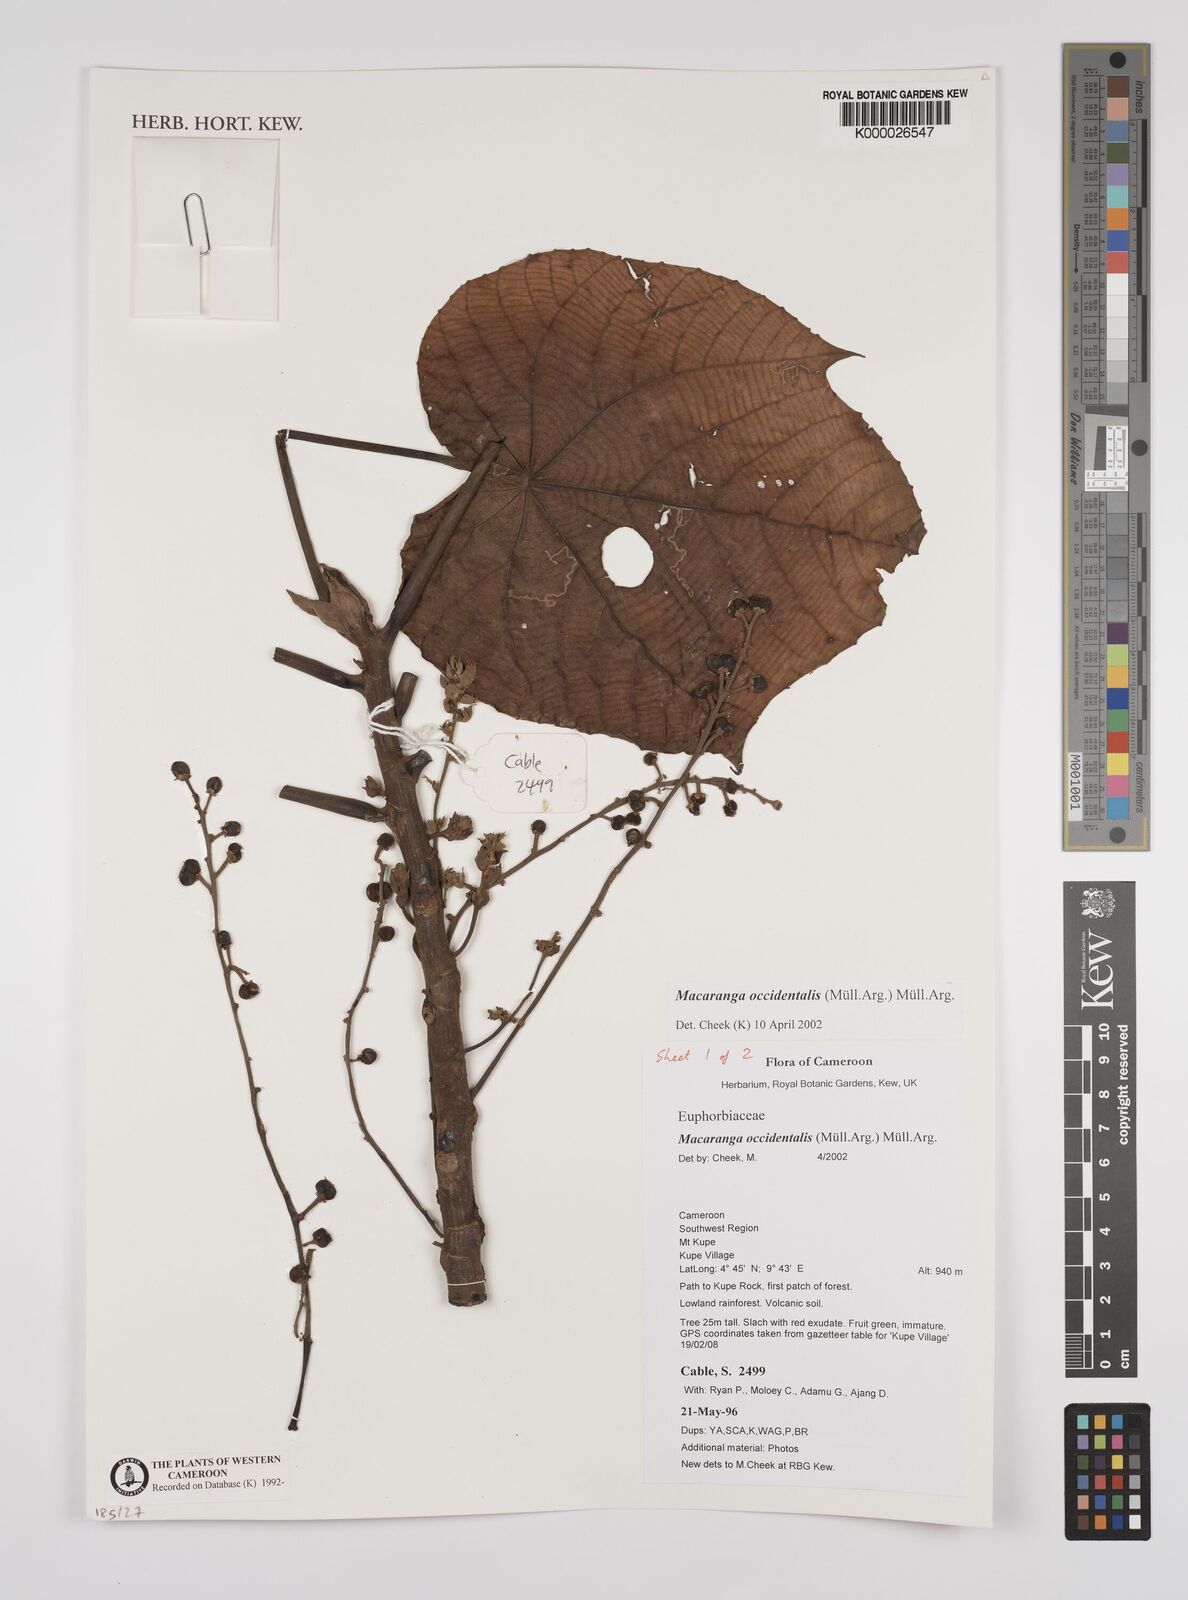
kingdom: Plantae
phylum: Tracheophyta
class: Magnoliopsida
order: Malpighiales
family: Euphorbiaceae
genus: Macaranga
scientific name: Macaranga
